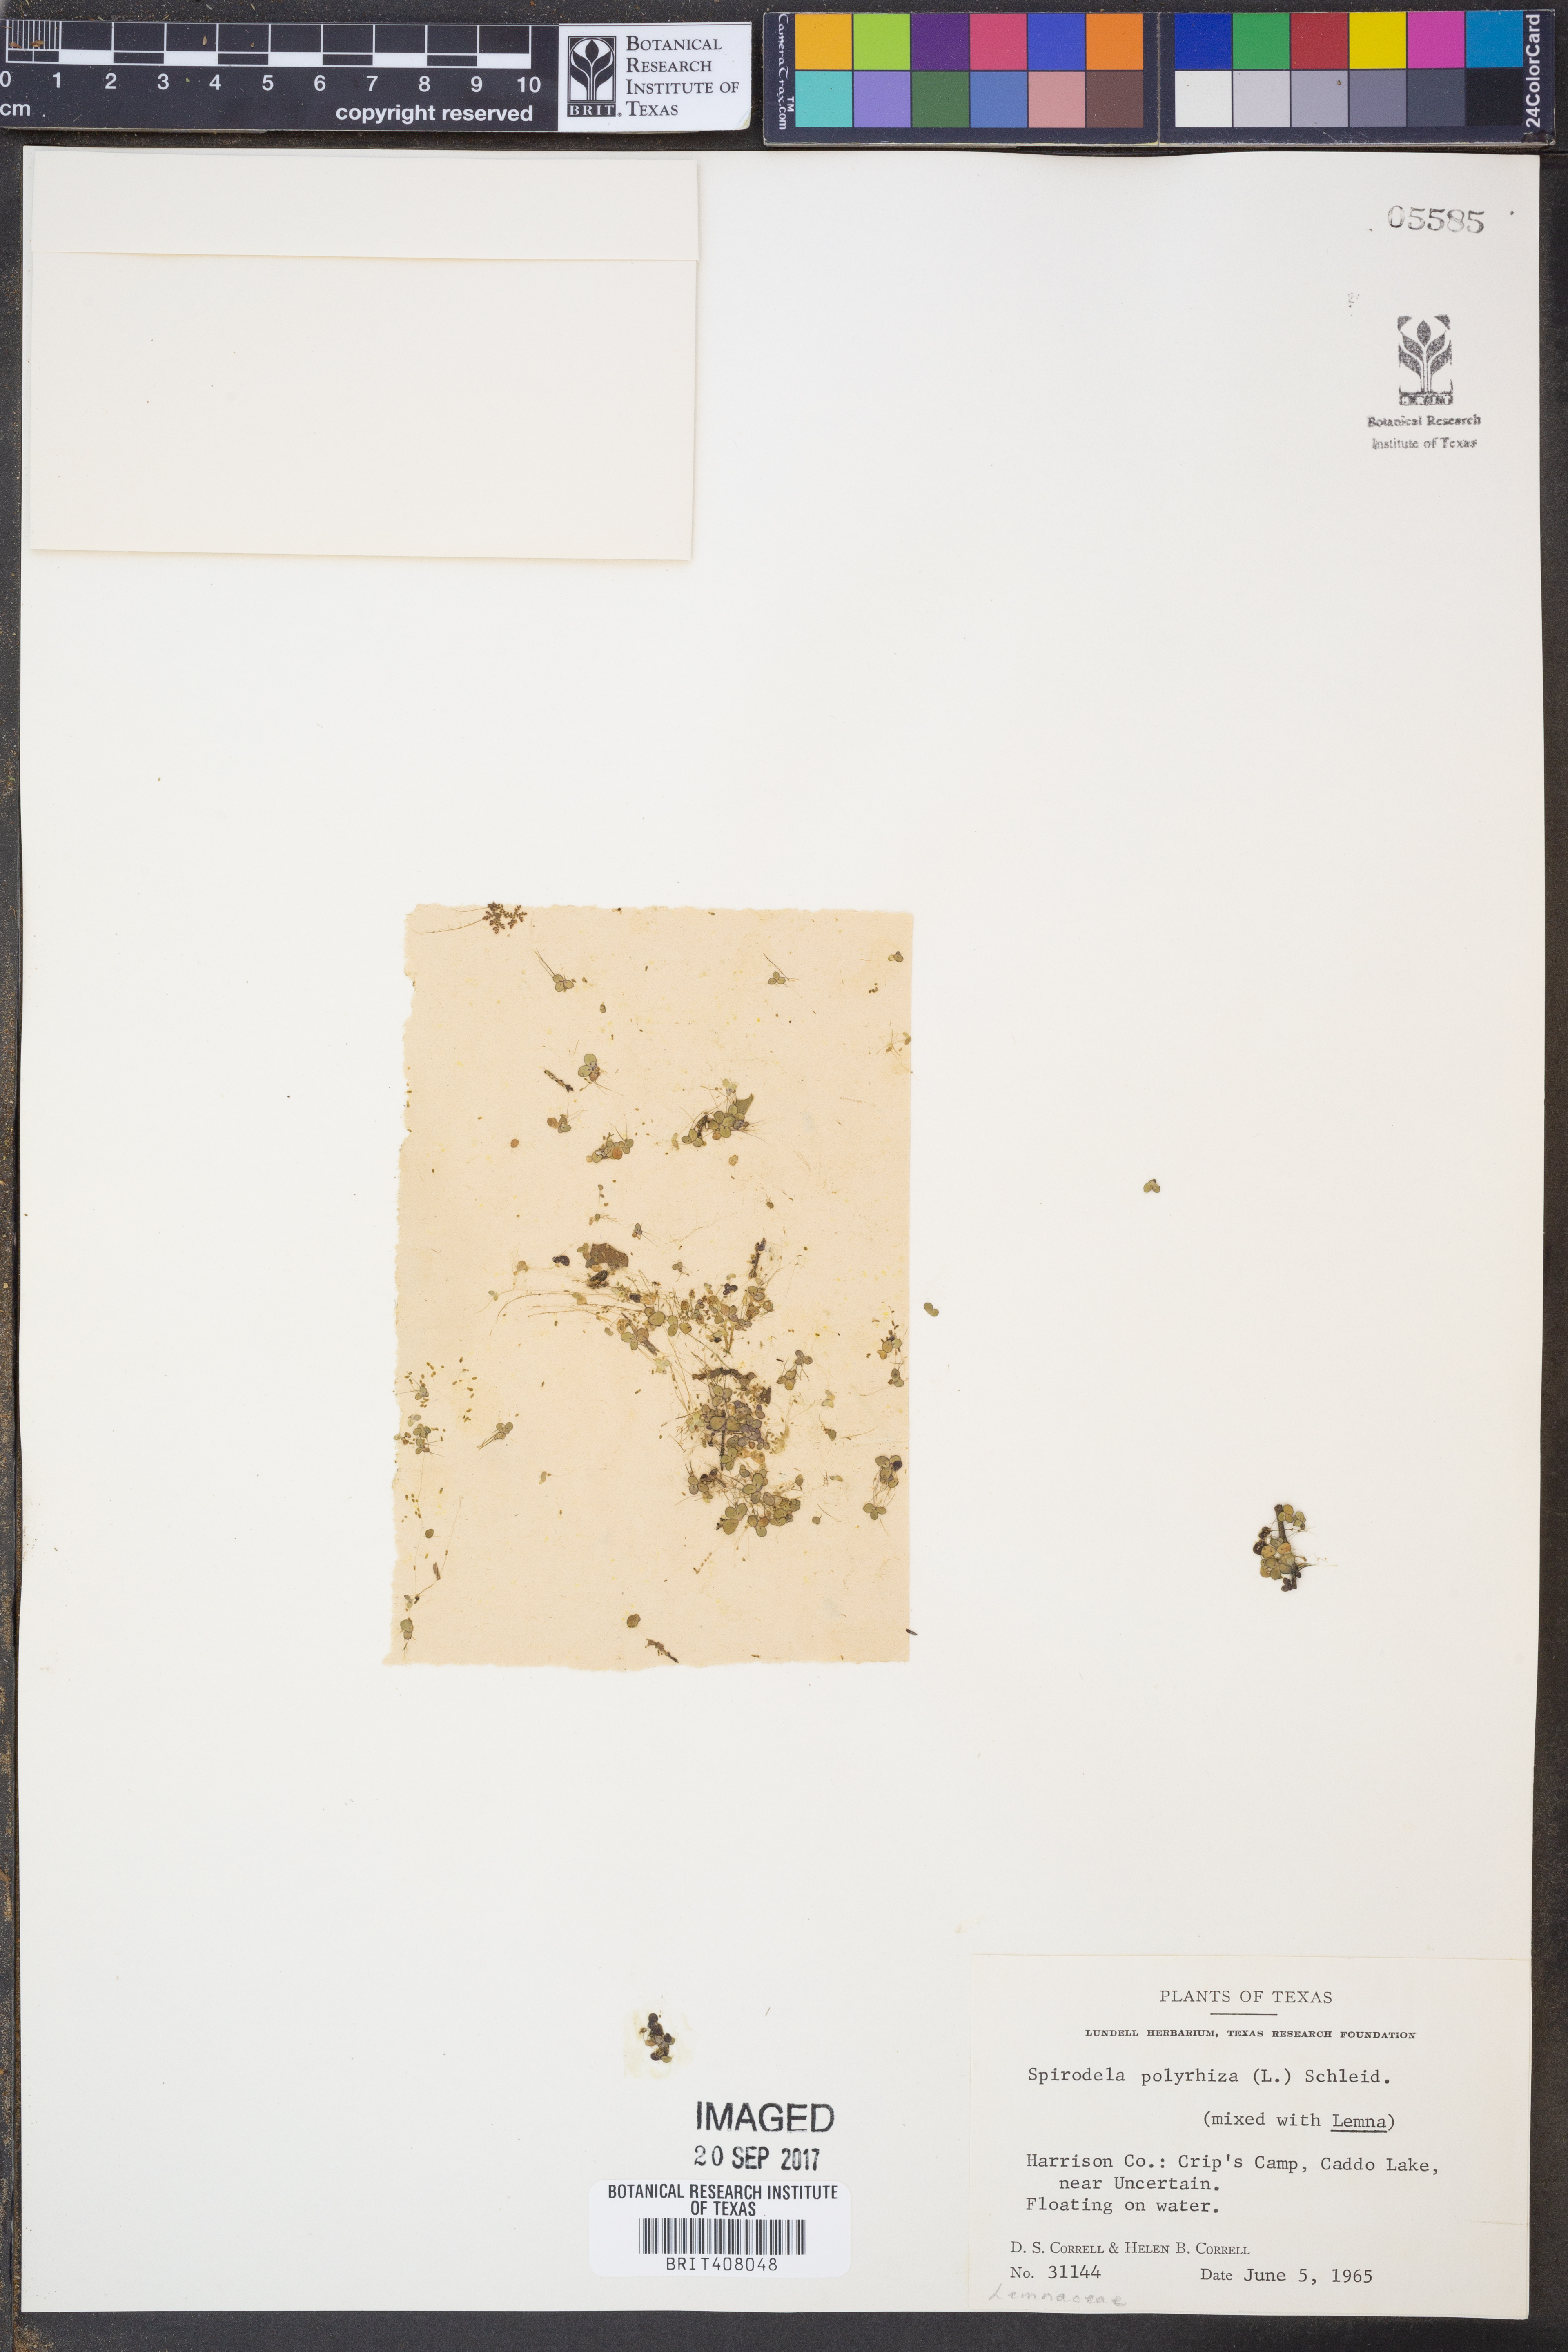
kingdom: Plantae
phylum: Tracheophyta
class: Liliopsida
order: Alismatales
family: Araceae
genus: Spirodela
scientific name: Spirodela polyrhiza
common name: Great duckweed
